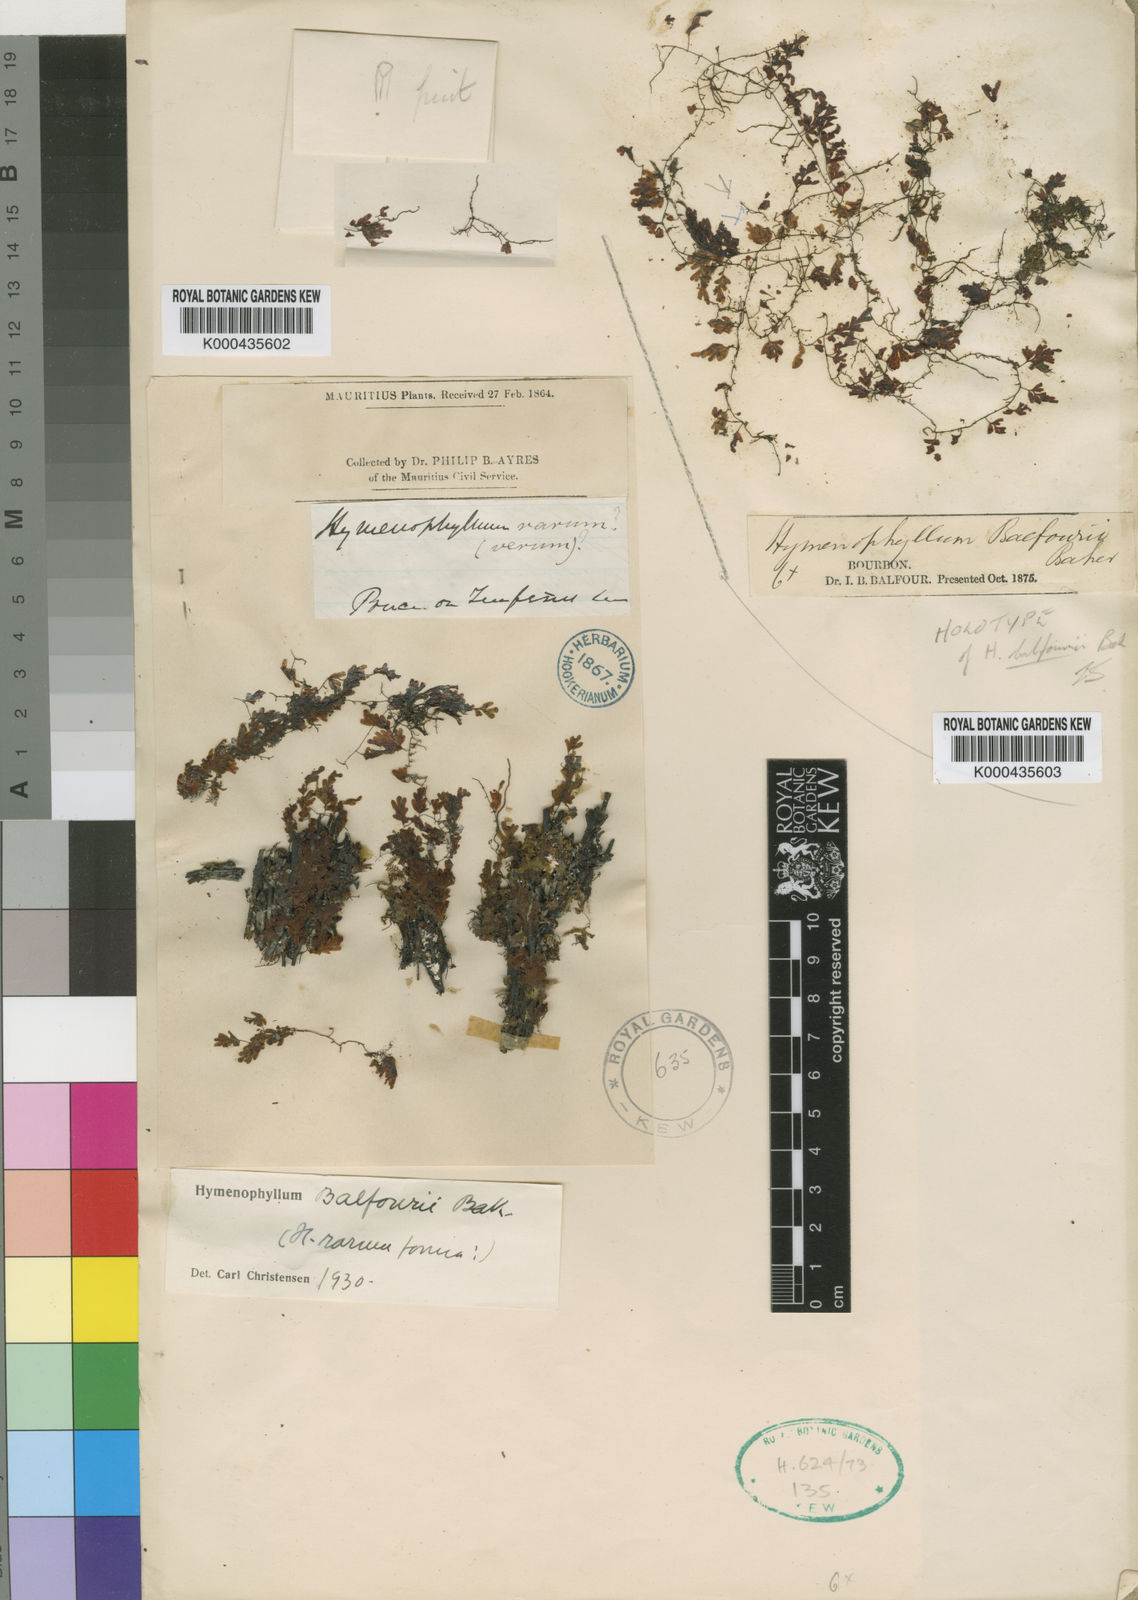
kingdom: Plantae
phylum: Tracheophyta
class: Polypodiopsida
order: Hymenophyllales
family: Hymenophyllaceae
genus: Hymenophyllum
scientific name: Hymenophyllum balfourii
